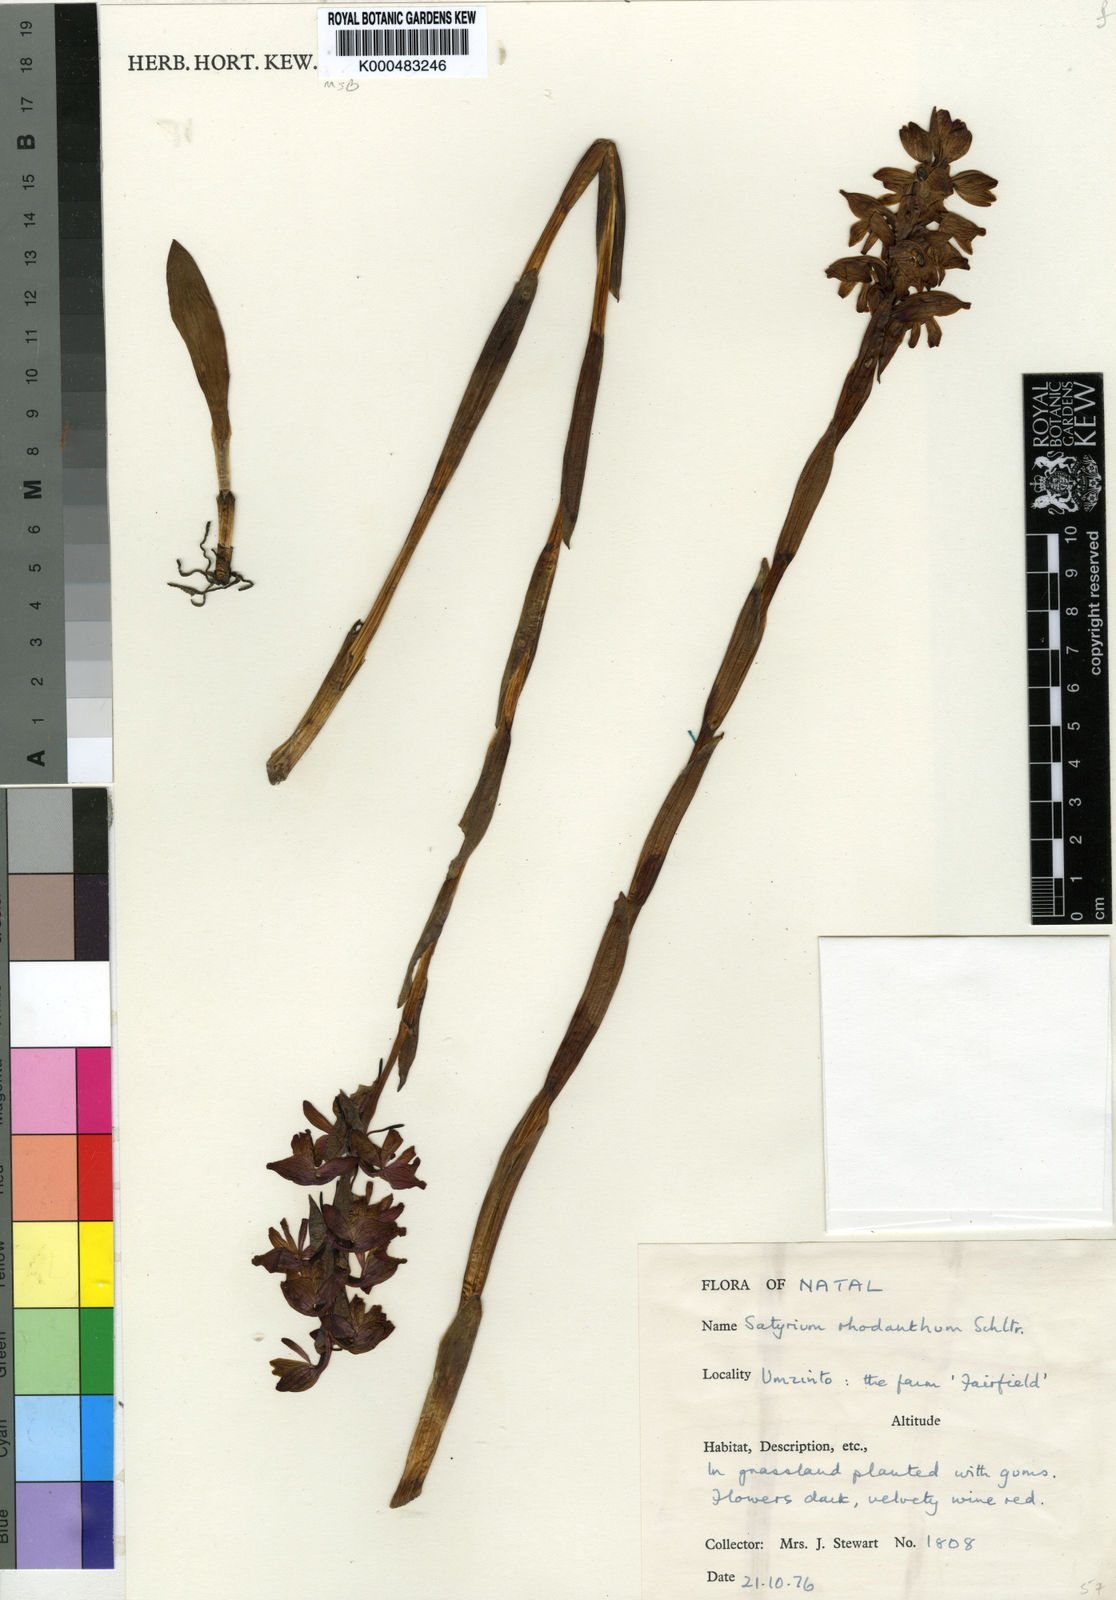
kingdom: Plantae
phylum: Tracheophyta
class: Liliopsida
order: Asparagales
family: Orchidaceae
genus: Satyrium
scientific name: Satyrium rhodanthum
